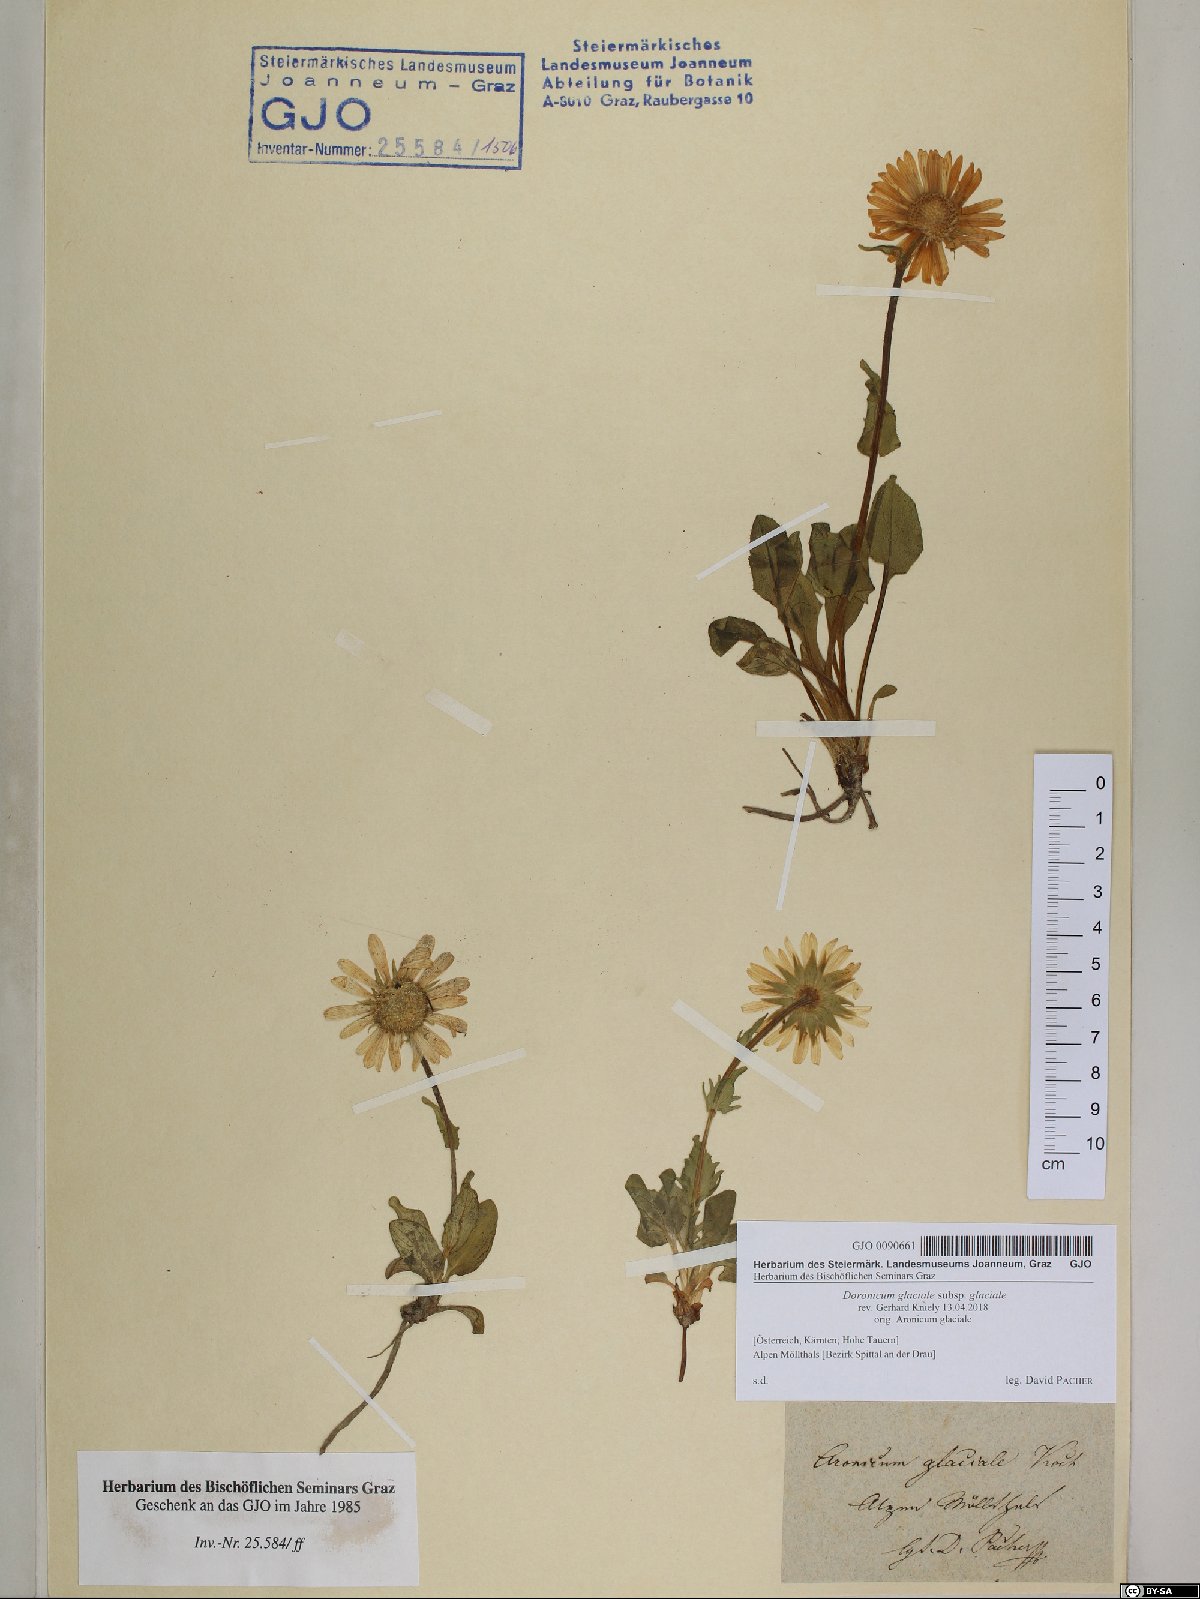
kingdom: Plantae
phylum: Tracheophyta
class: Magnoliopsida
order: Asterales
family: Asteraceae
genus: Doronicum
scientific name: Doronicum glaciale
